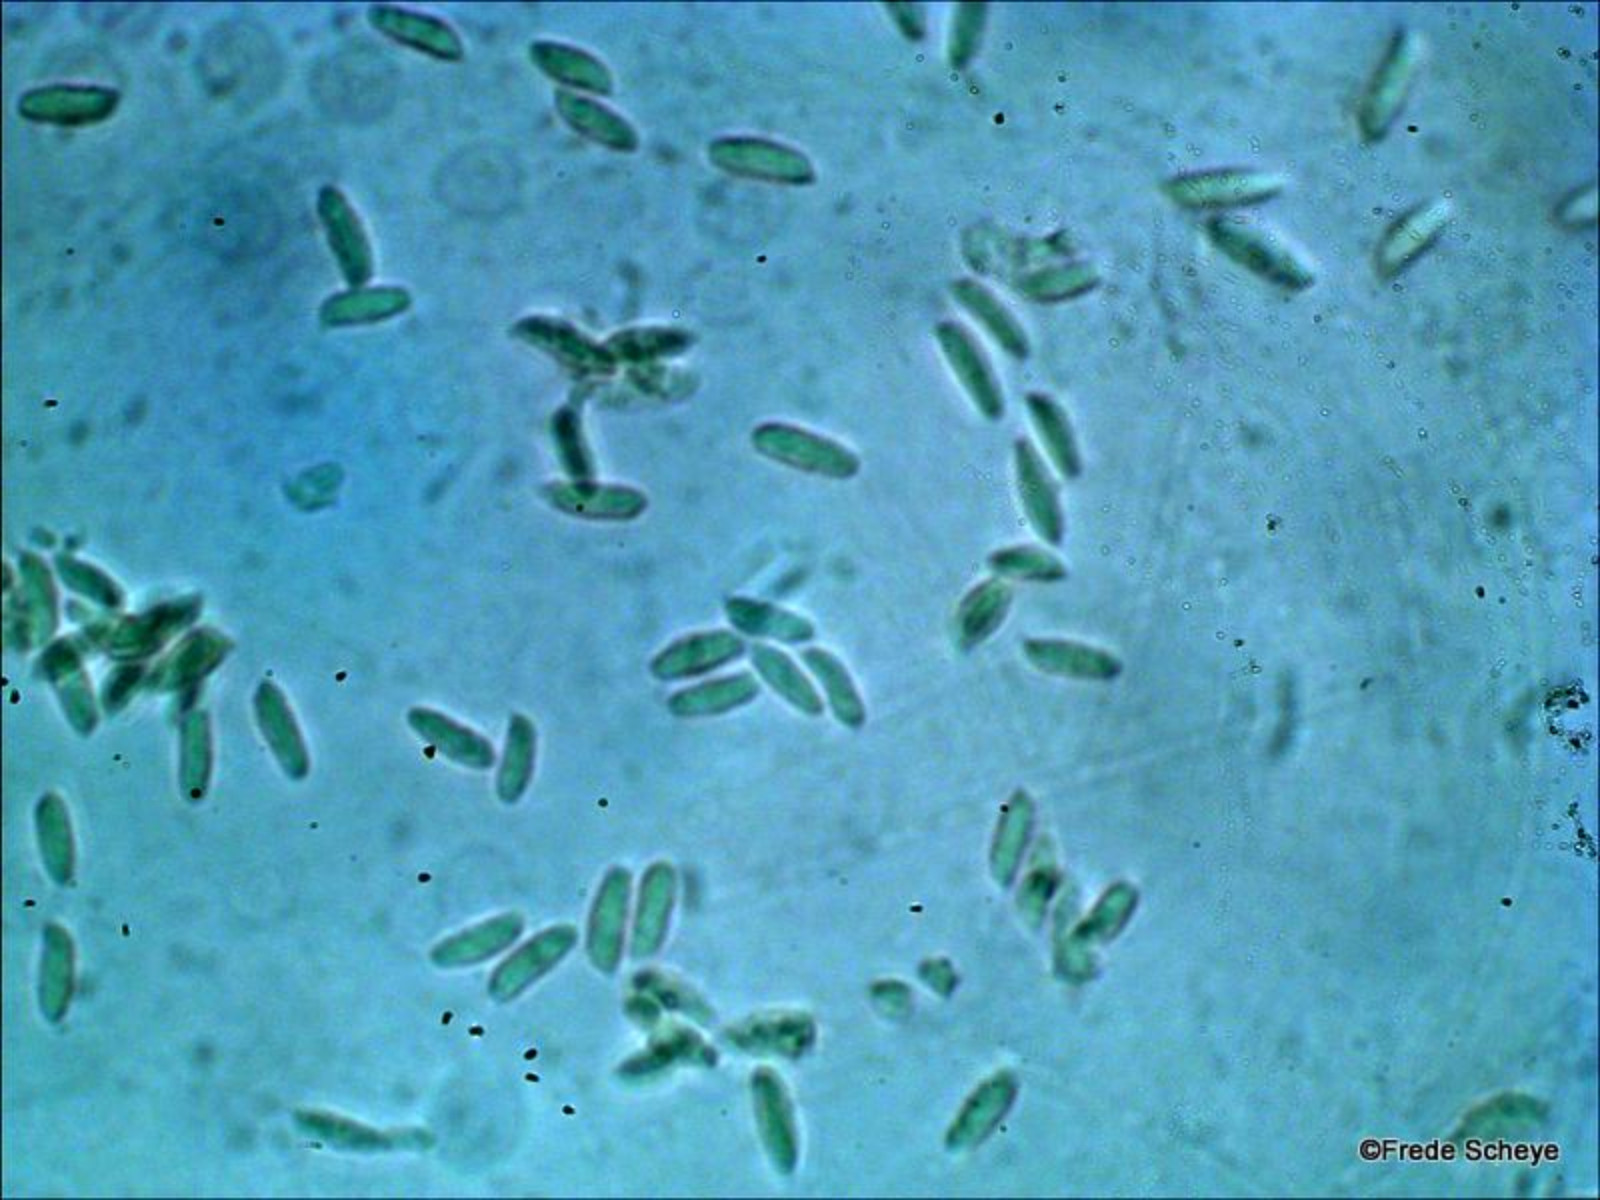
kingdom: Fungi
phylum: Basidiomycota
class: Agaricomycetes
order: Agaricales
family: Physalacriaceae
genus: Flammulina
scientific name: Flammulina elastica
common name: pile-fløjlsfod
